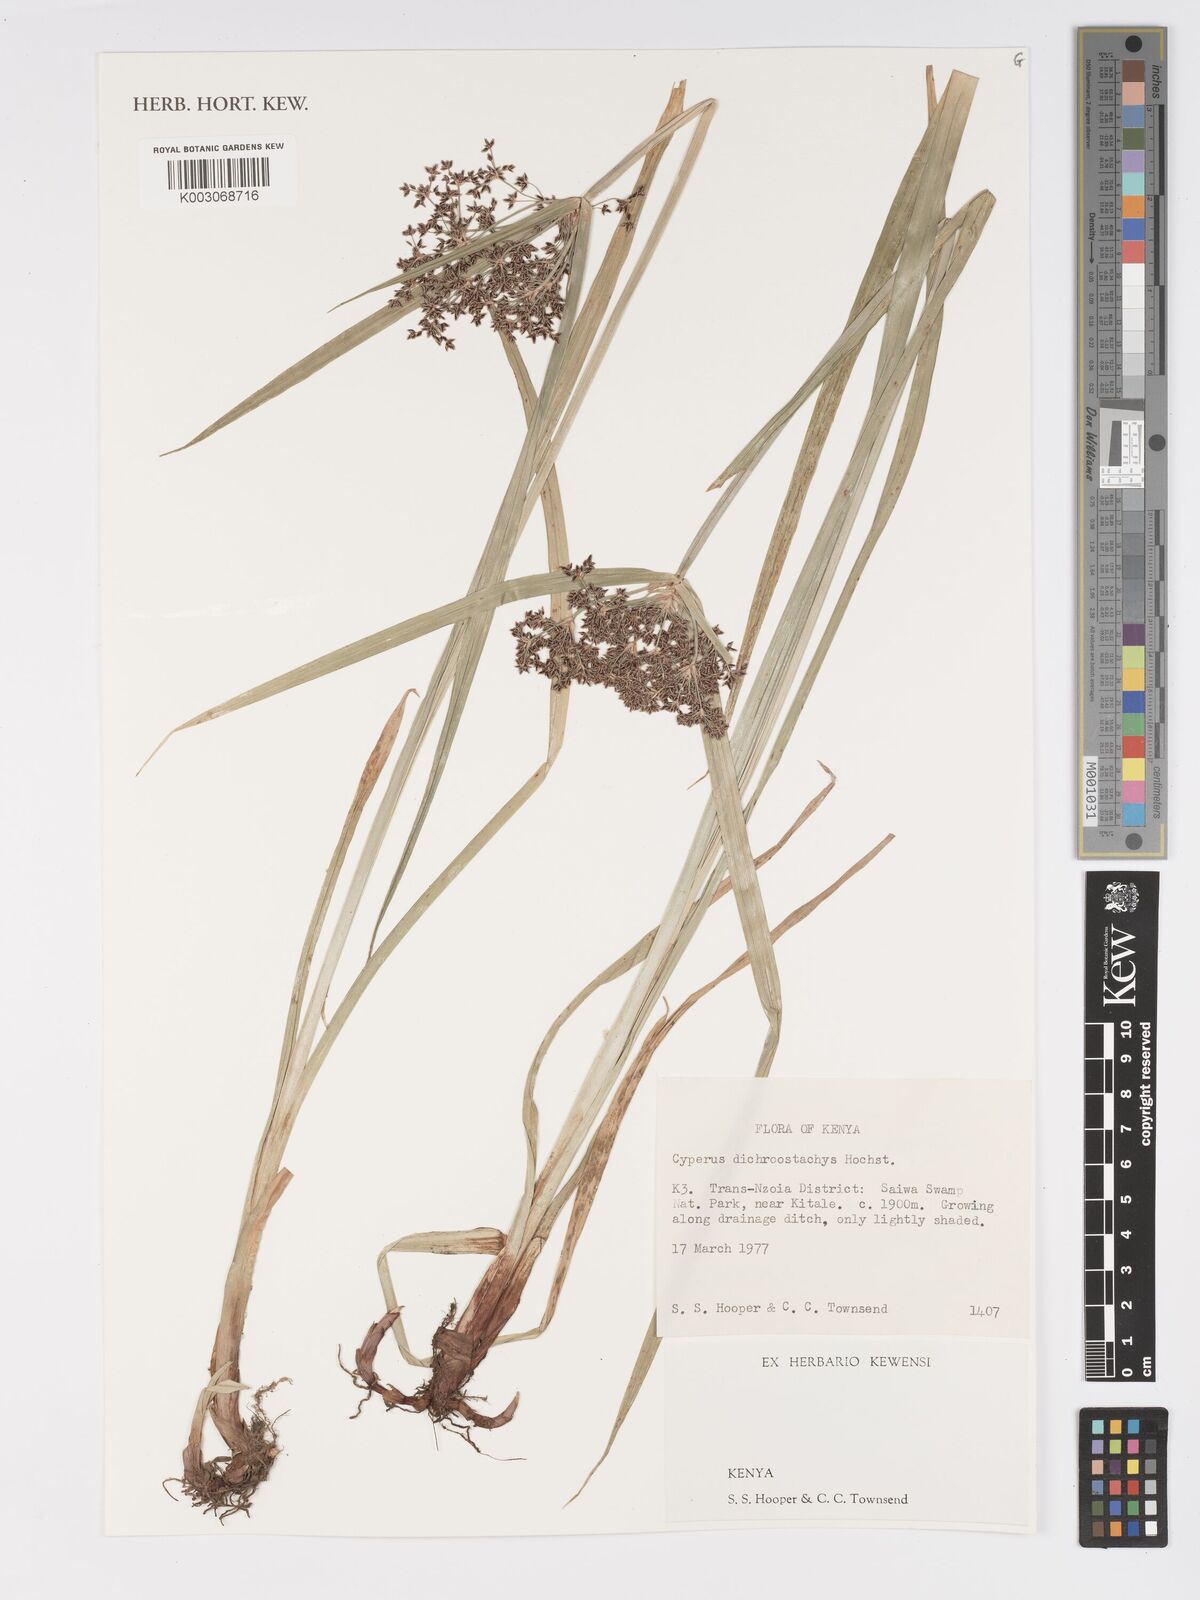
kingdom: Plantae
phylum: Tracheophyta
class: Liliopsida
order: Poales
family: Cyperaceae
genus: Cyperus
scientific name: Cyperus dichrostachyus
